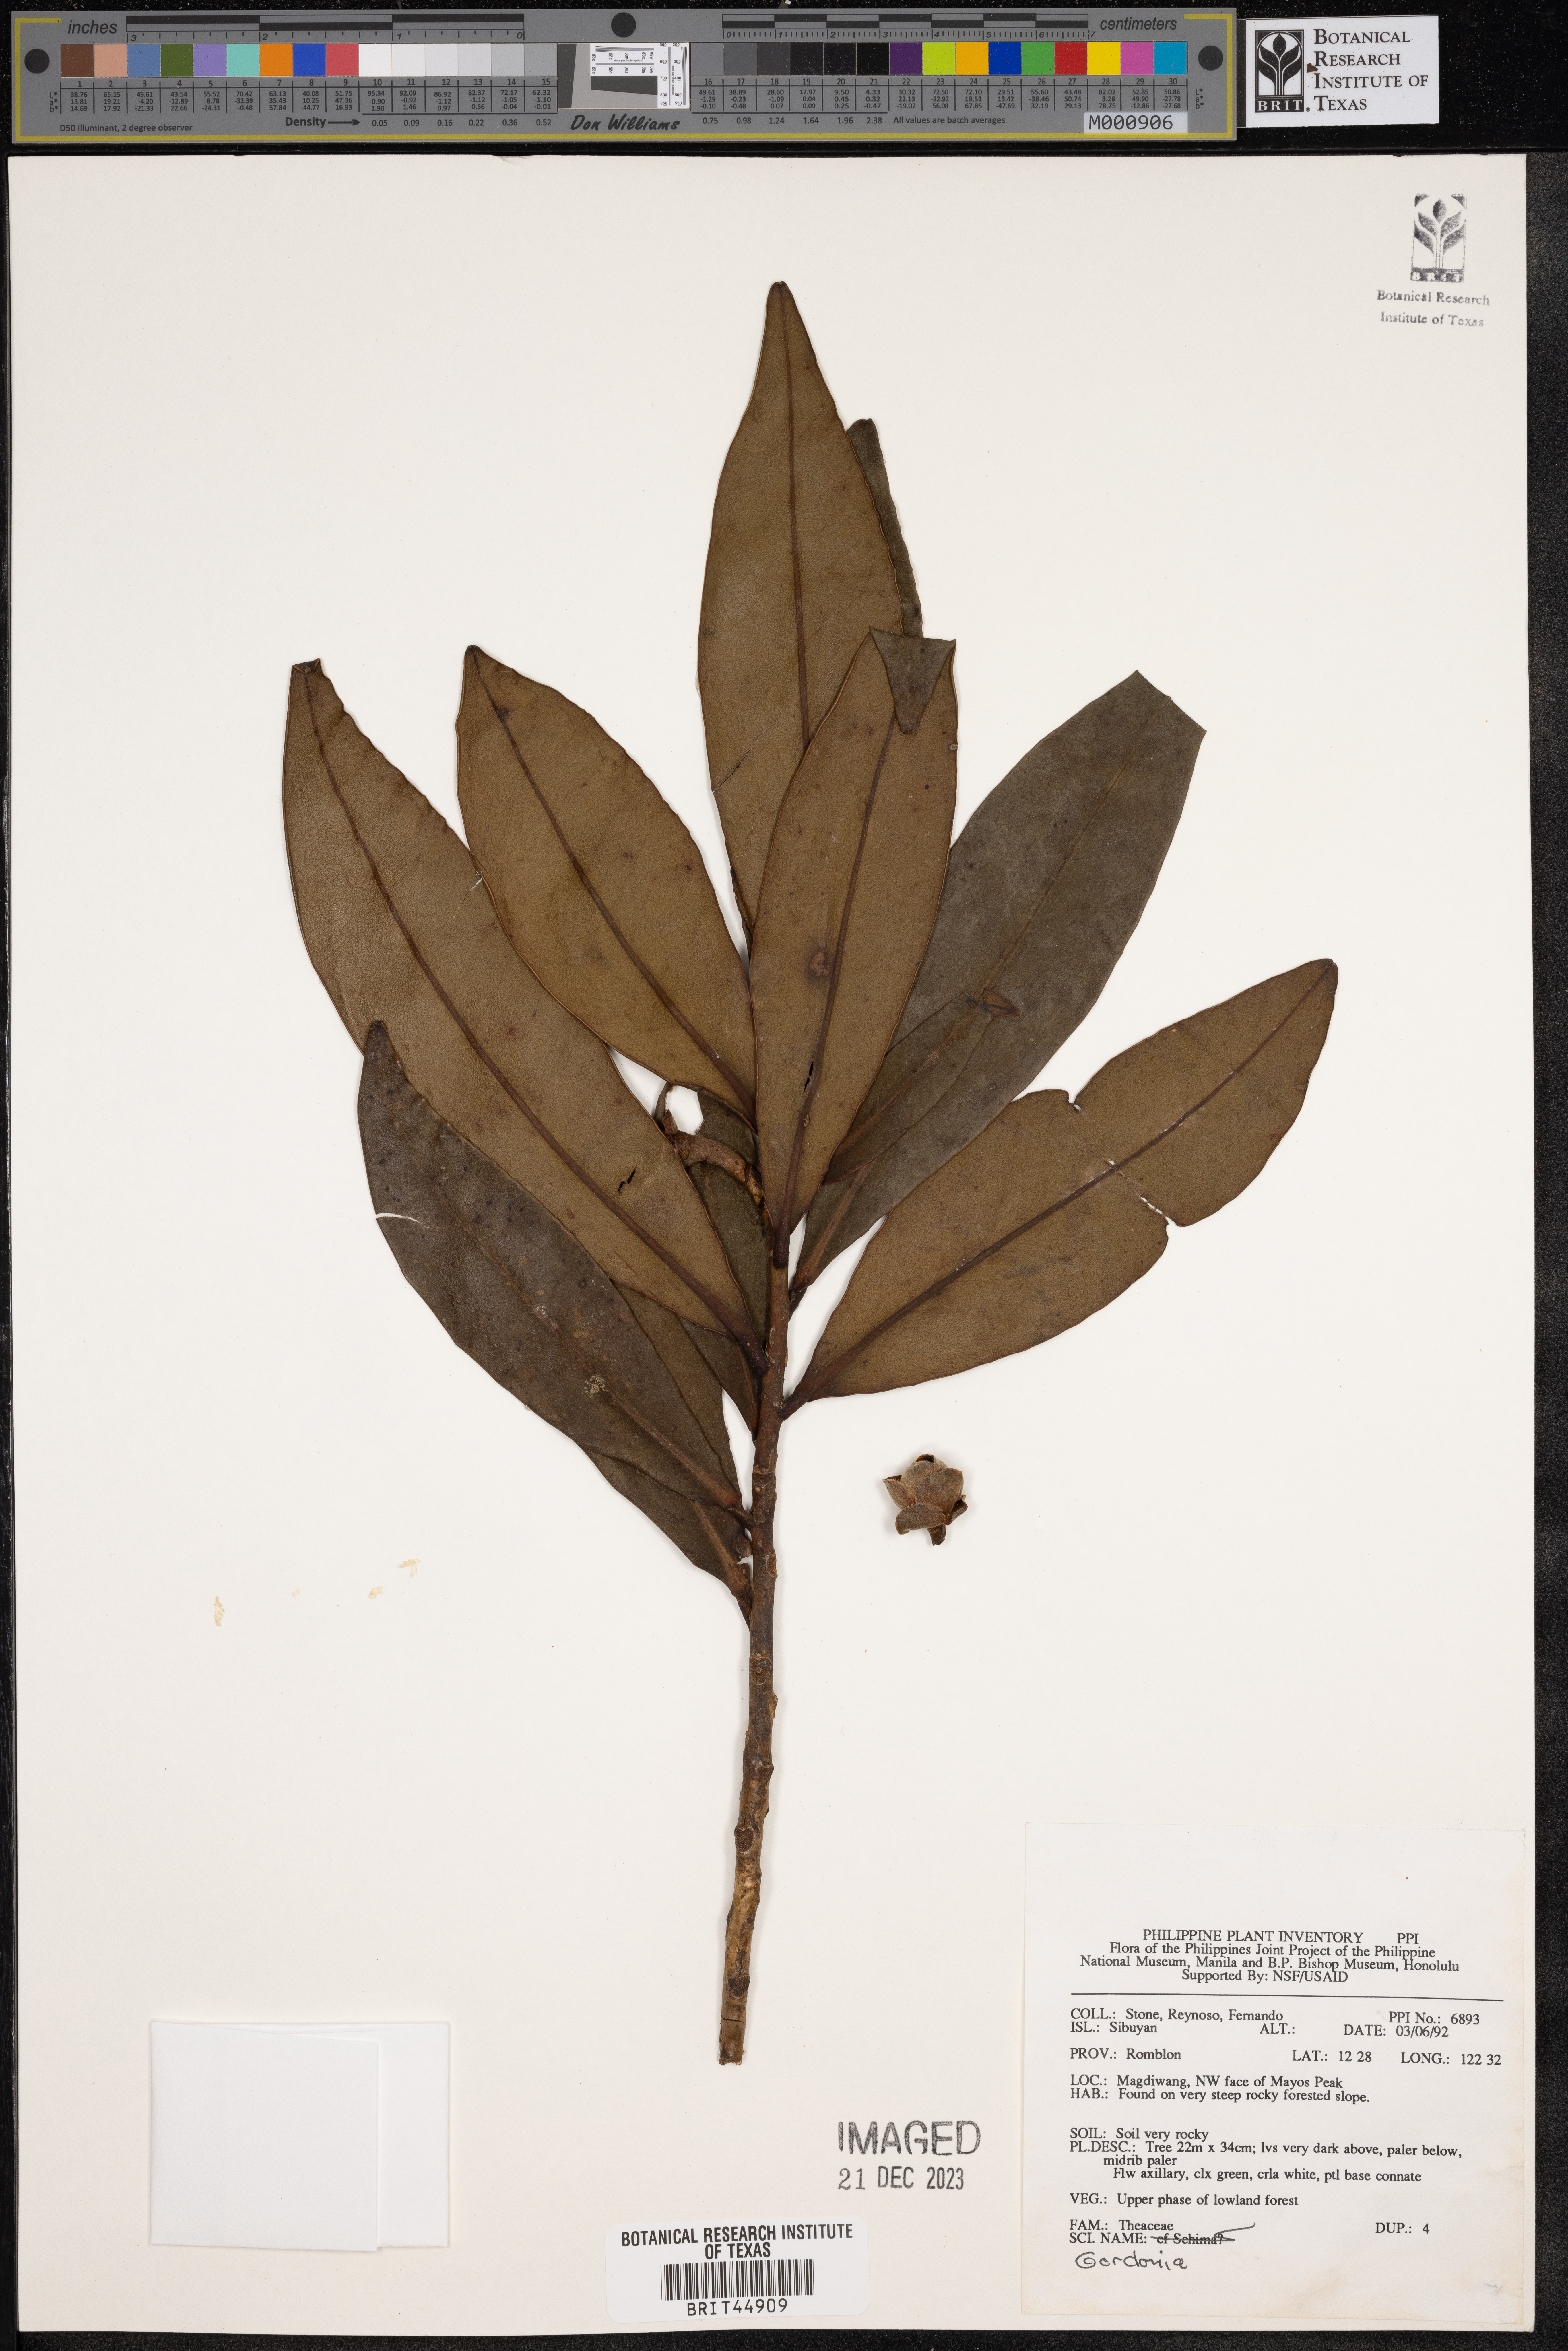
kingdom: Plantae
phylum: Tracheophyta
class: Magnoliopsida
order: Ericales
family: Theaceae
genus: Gordonia
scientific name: Gordonia
